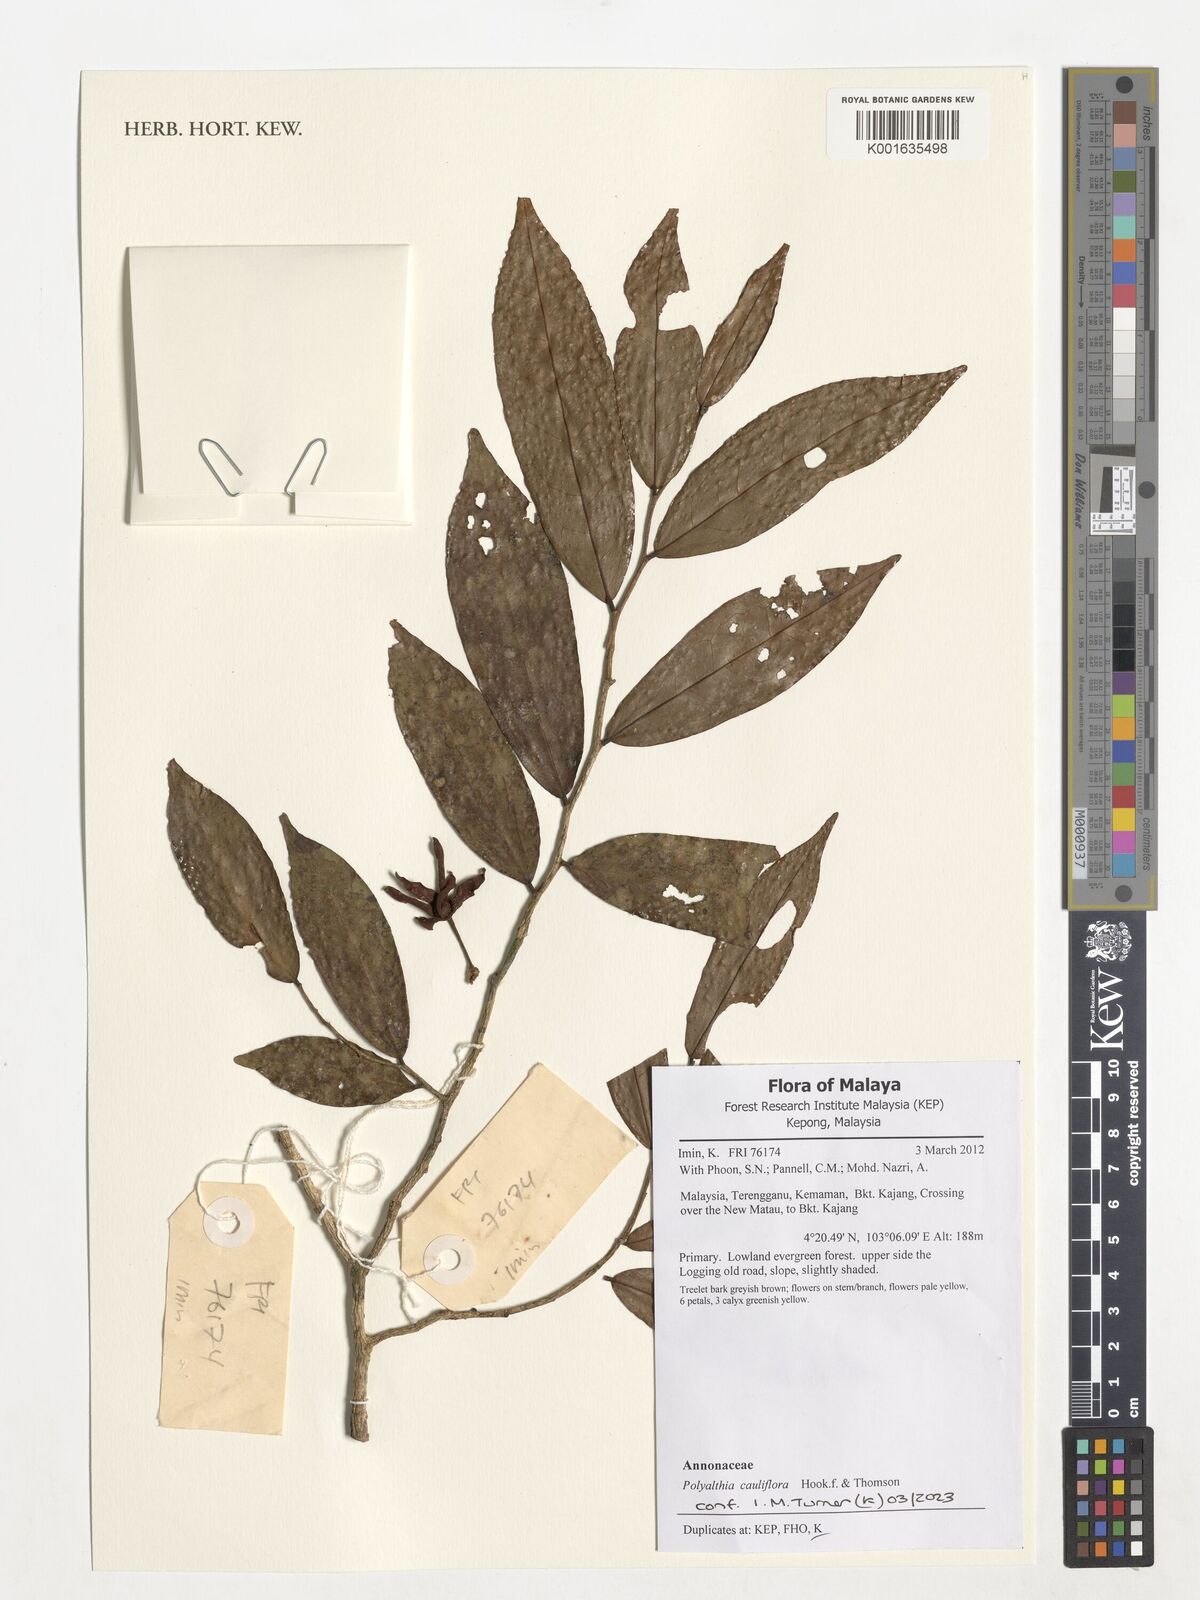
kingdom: Plantae
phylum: Tracheophyta
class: Magnoliopsida
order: Magnoliales
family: Annonaceae
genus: Polyalthia
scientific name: Polyalthia cauliflora
